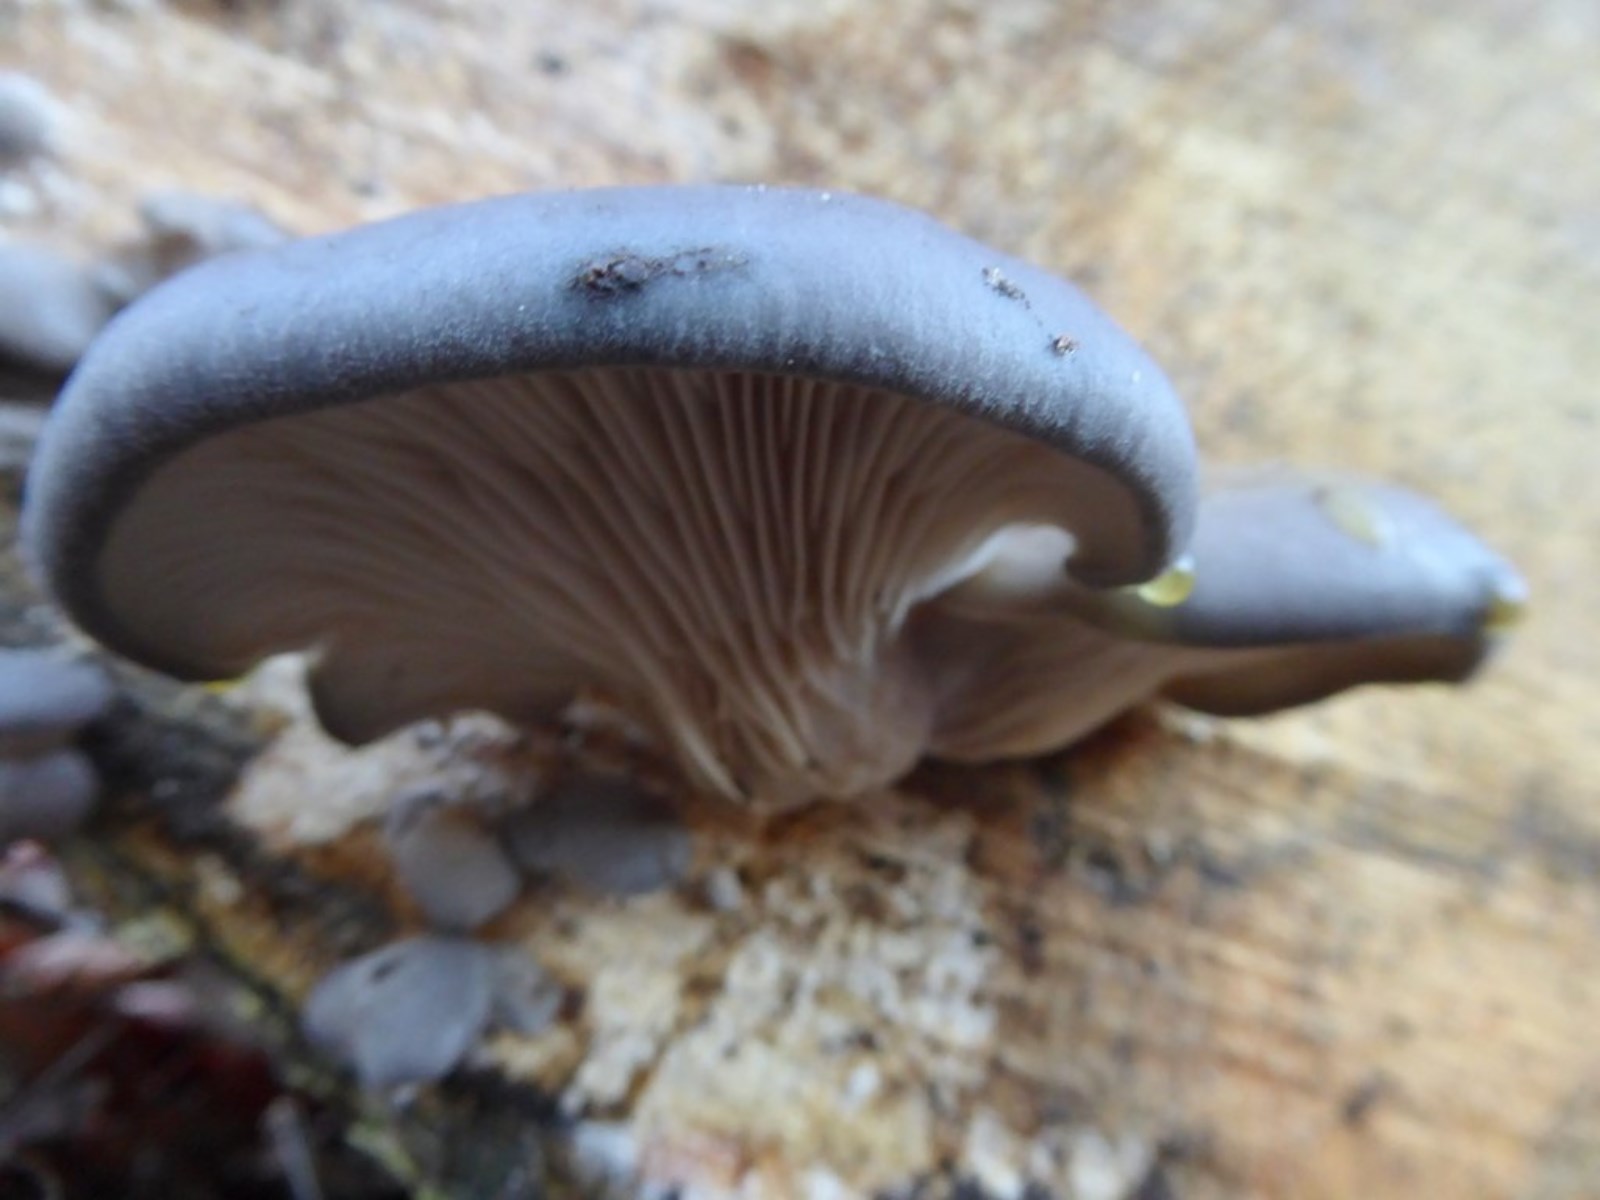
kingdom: Fungi
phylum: Basidiomycota
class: Agaricomycetes
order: Agaricales
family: Pleurotaceae
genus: Pleurotus
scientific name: Pleurotus ostreatus
